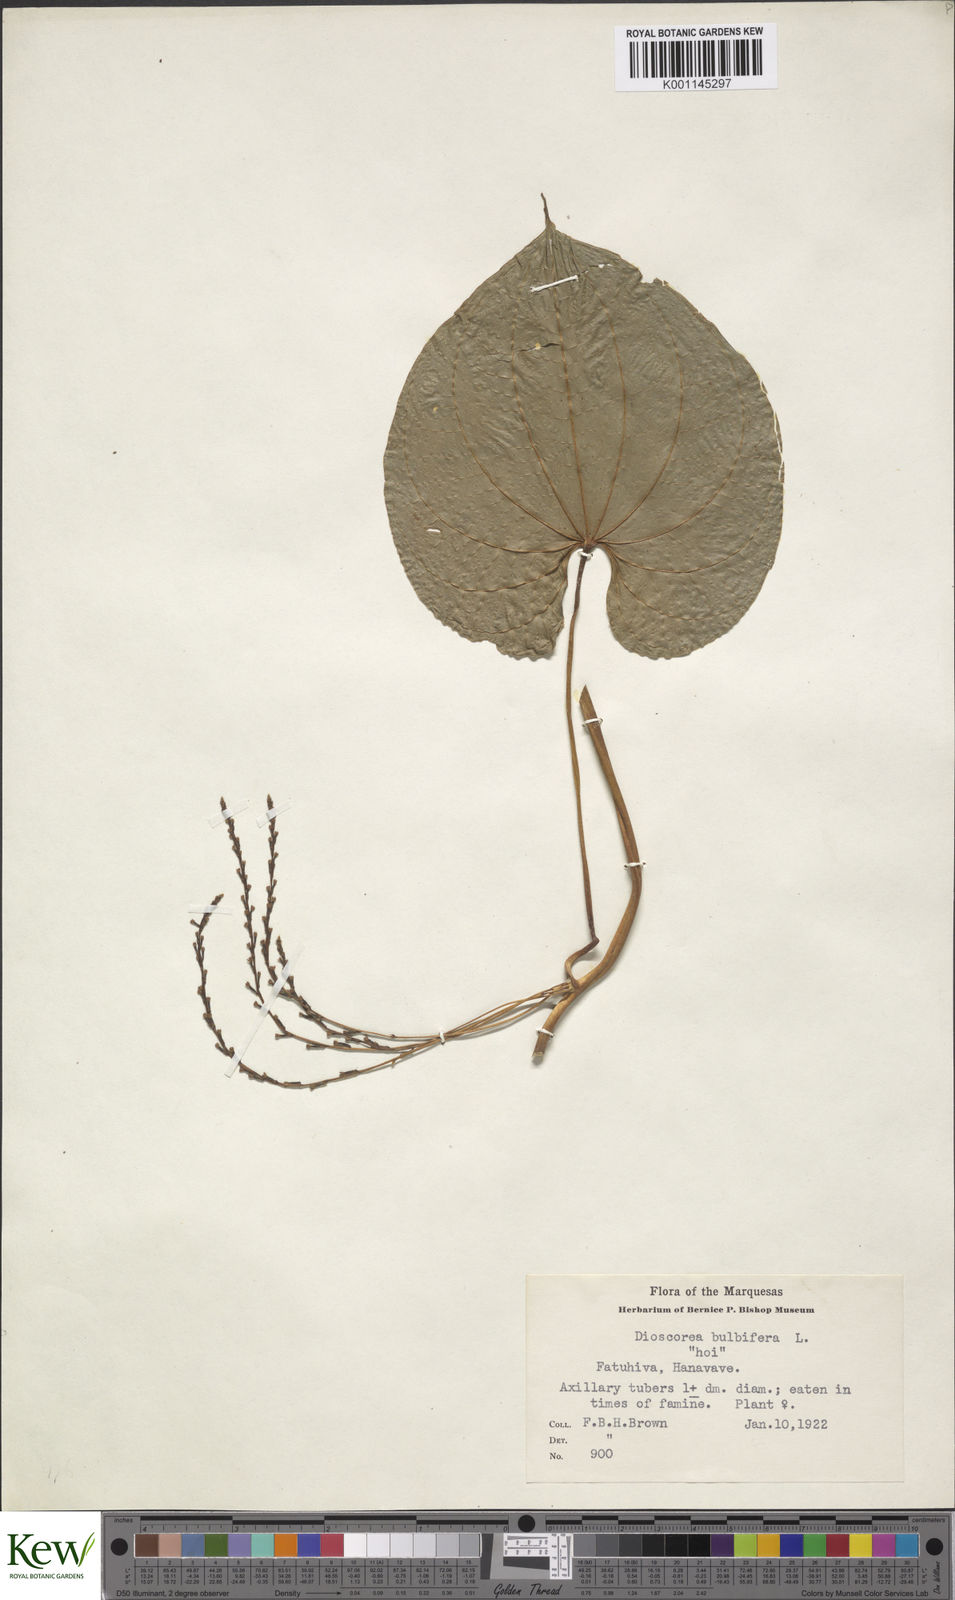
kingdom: Plantae
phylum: Tracheophyta
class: Liliopsida
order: Dioscoreales
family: Dioscoreaceae
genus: Dioscorea
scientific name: Dioscorea bulbifera
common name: Air yam
